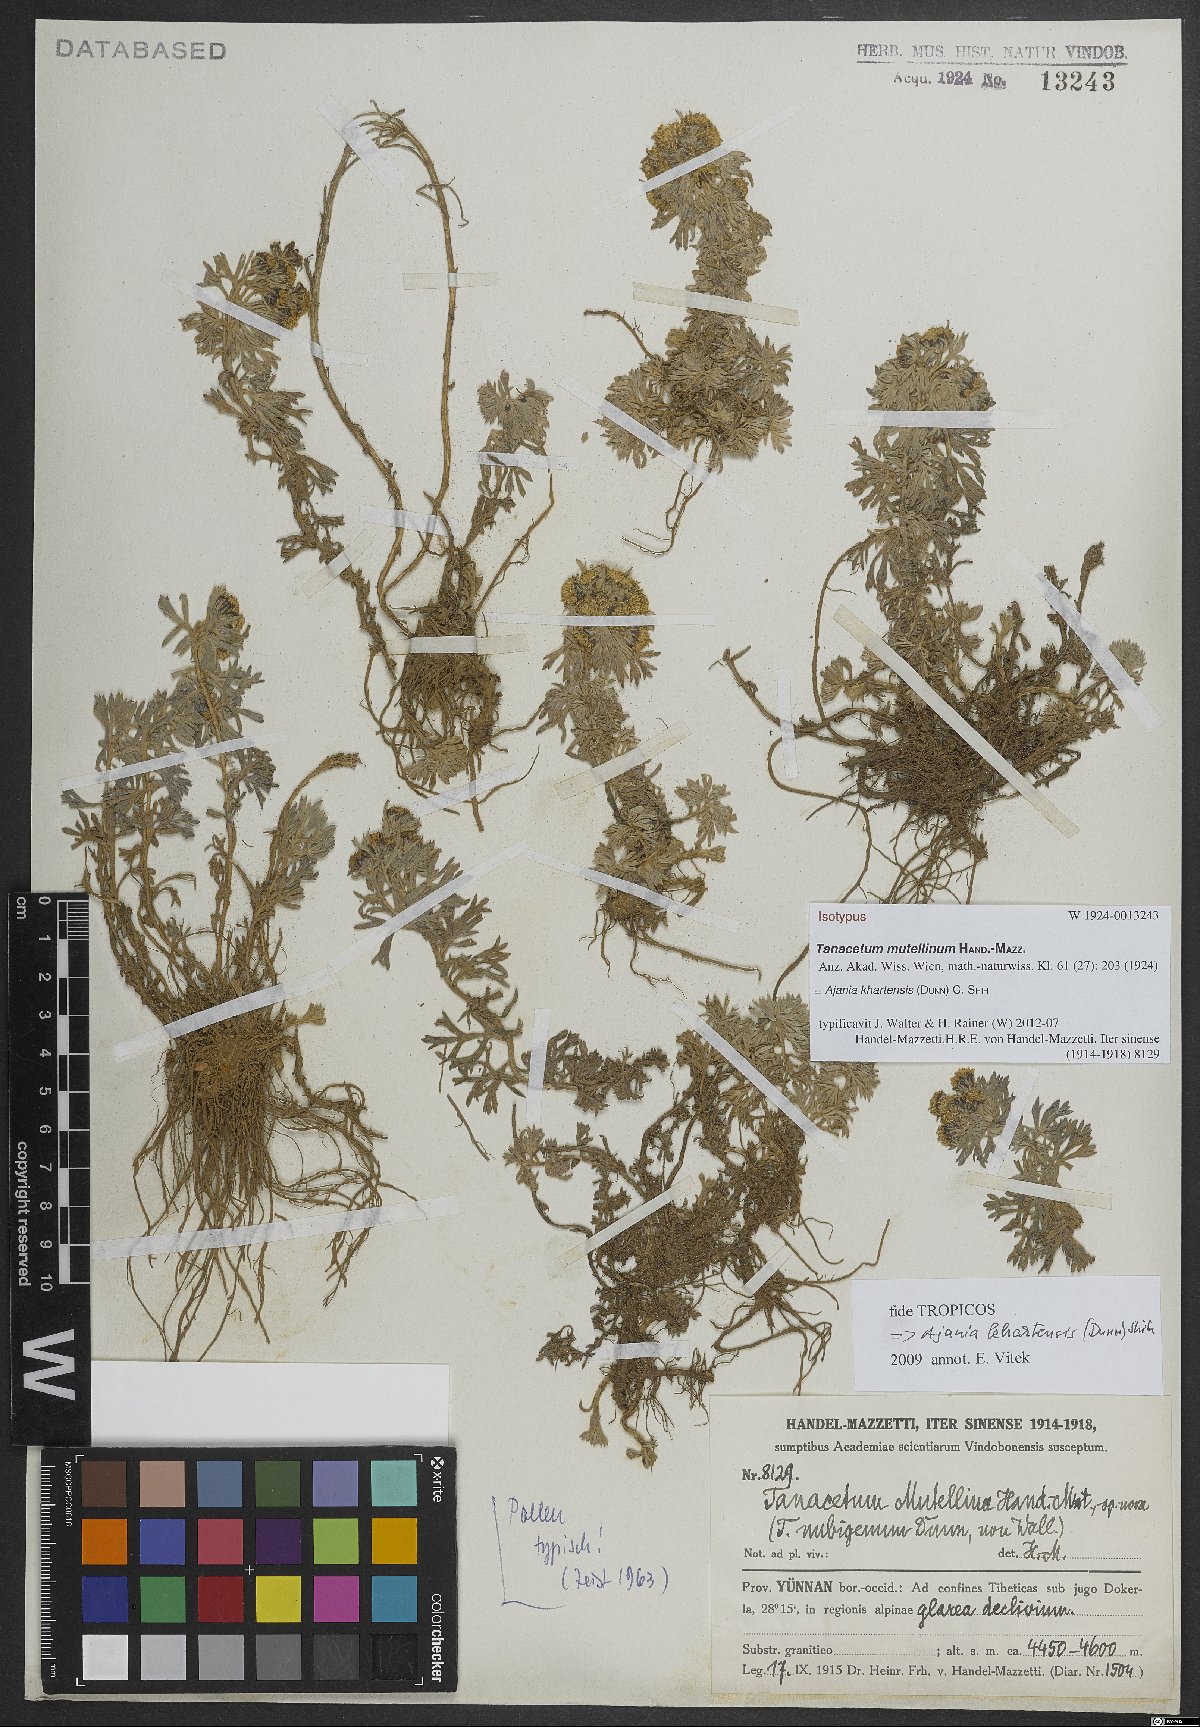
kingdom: Plantae
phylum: Tracheophyta
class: Magnoliopsida
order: Asterales
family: Asteraceae
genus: Ajania
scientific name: Ajania khartensis
